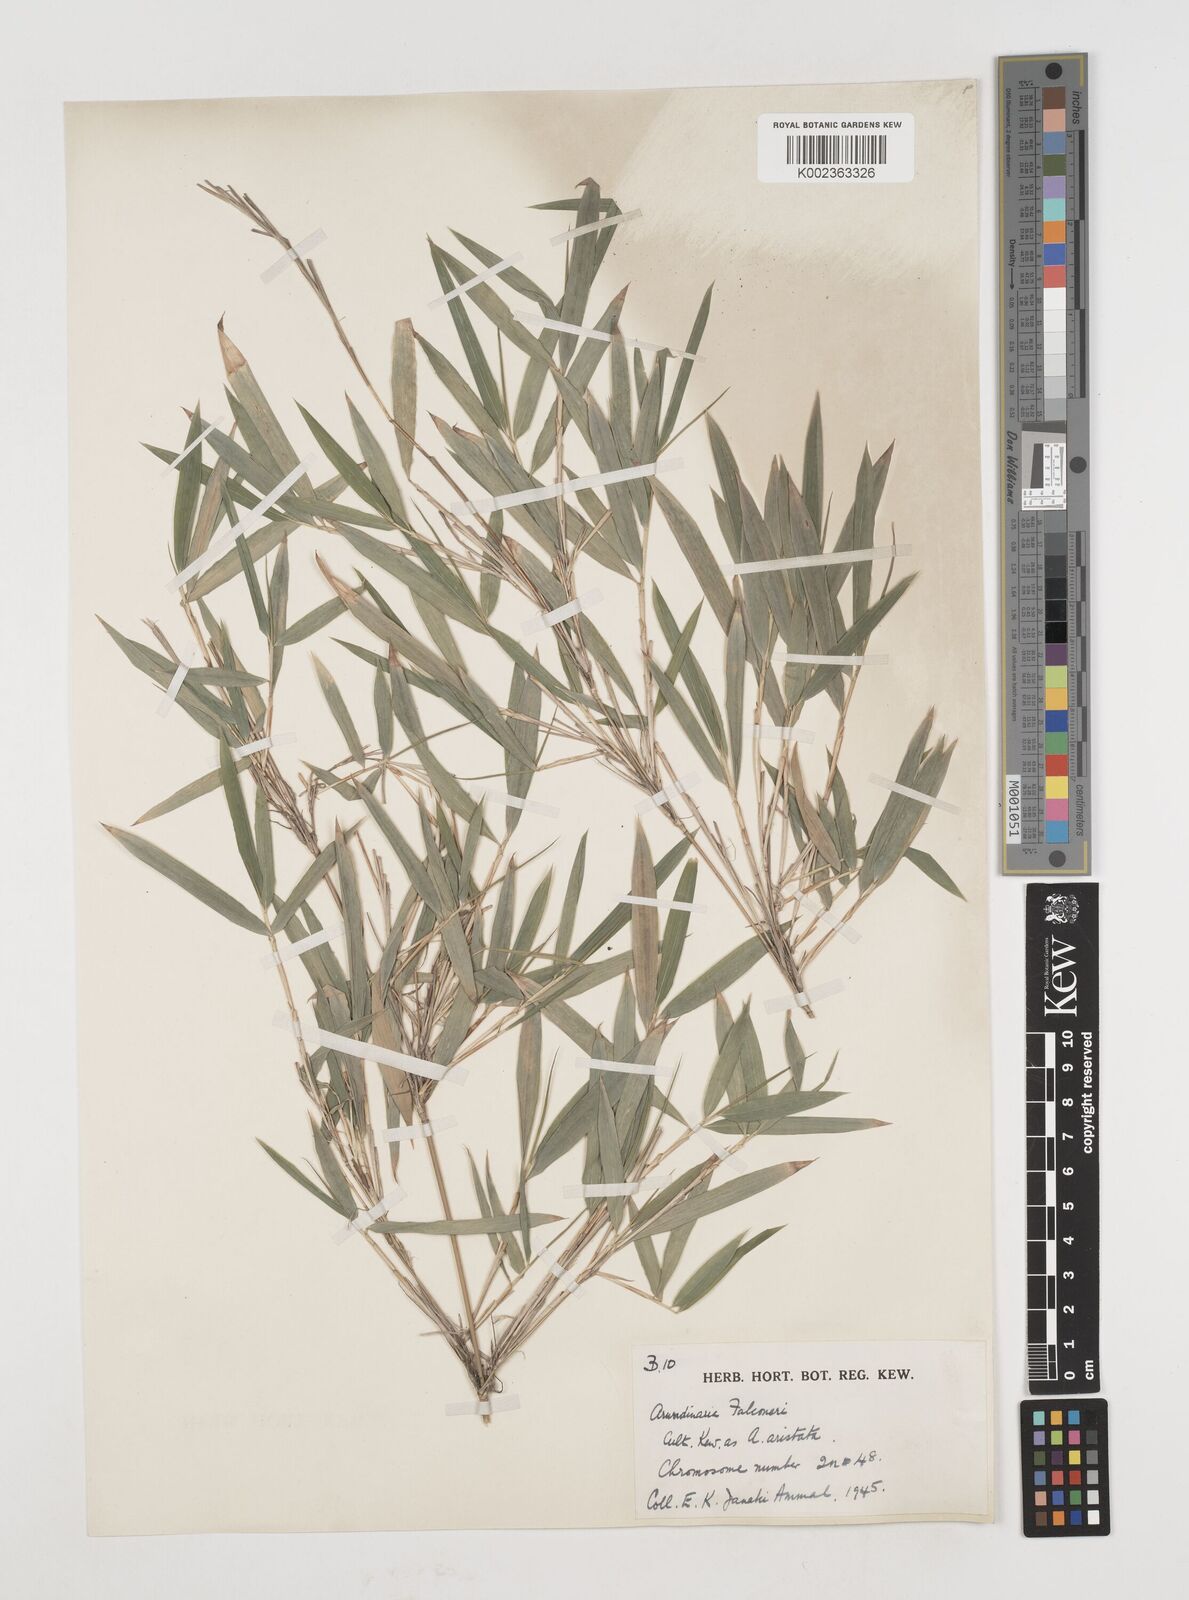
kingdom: Plantae
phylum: Tracheophyta
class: Liliopsida
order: Poales
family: Poaceae
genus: Himalayacalamus
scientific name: Himalayacalamus falconeri
